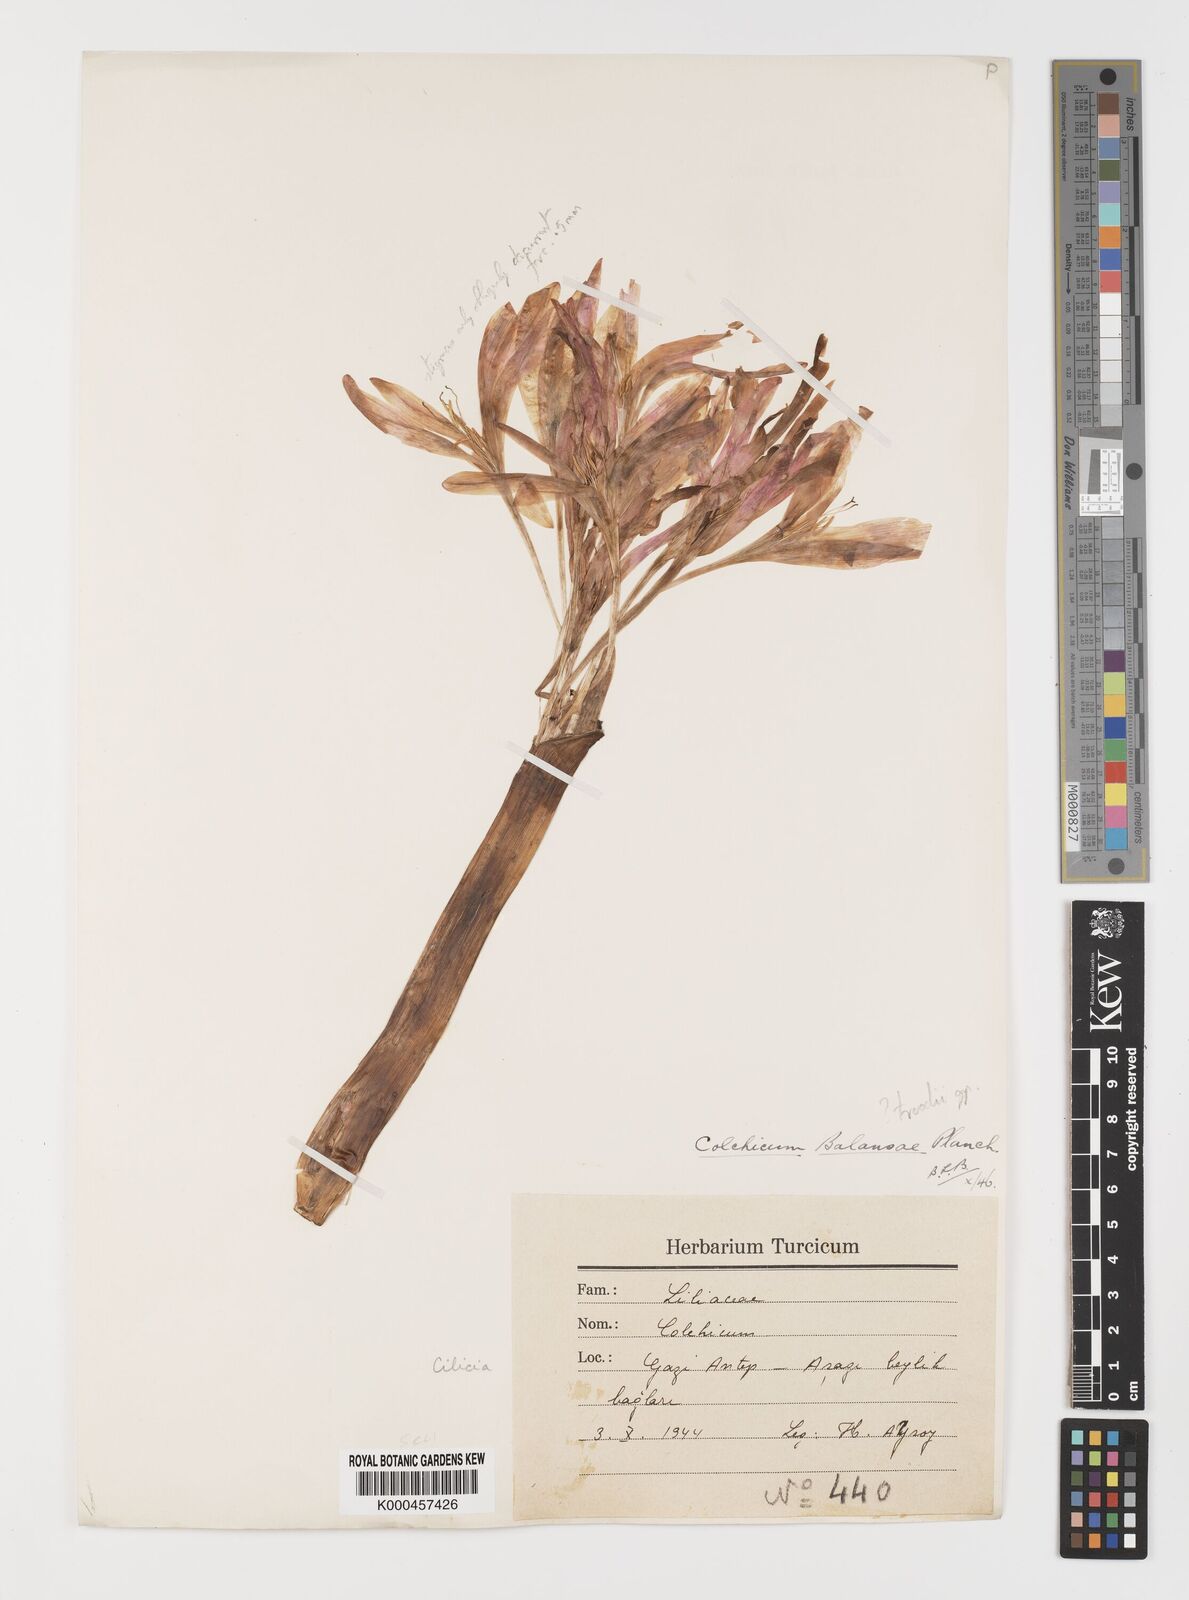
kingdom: Plantae
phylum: Tracheophyta
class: Liliopsida
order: Liliales
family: Colchicaceae
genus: Colchicum
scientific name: Colchicum balansae
